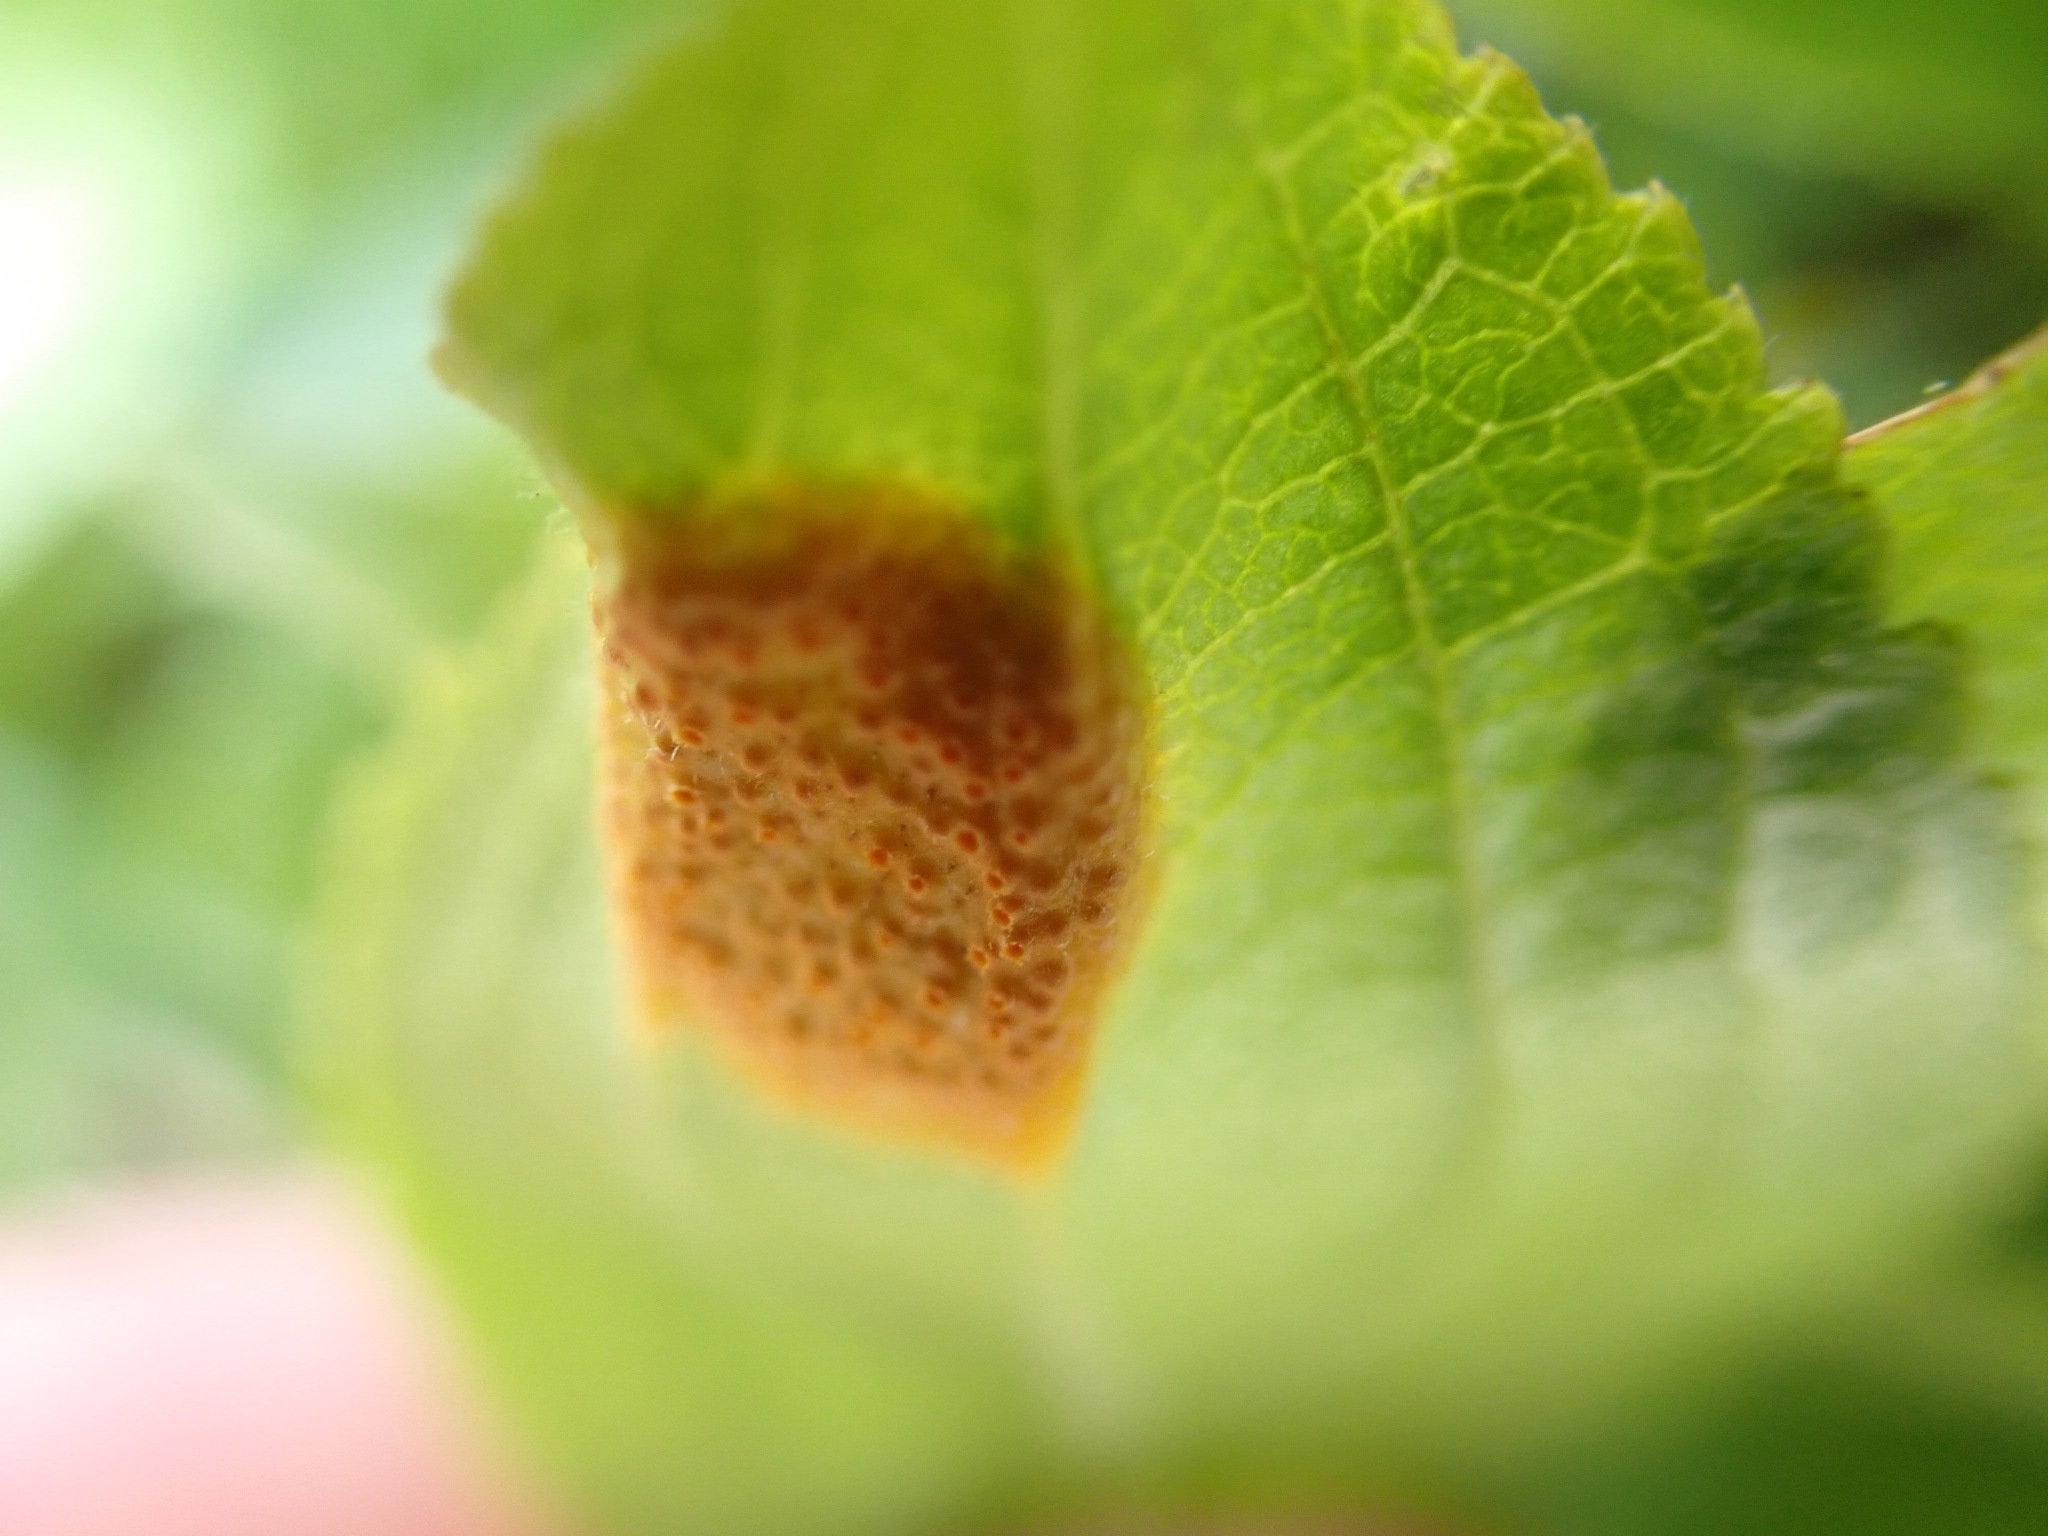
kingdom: Fungi
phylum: Basidiomycota
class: Pucciniomycetes
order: Pucciniales
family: Pucciniaceae
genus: Puccinia
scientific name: Puccinia coronata
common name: Crown rust
